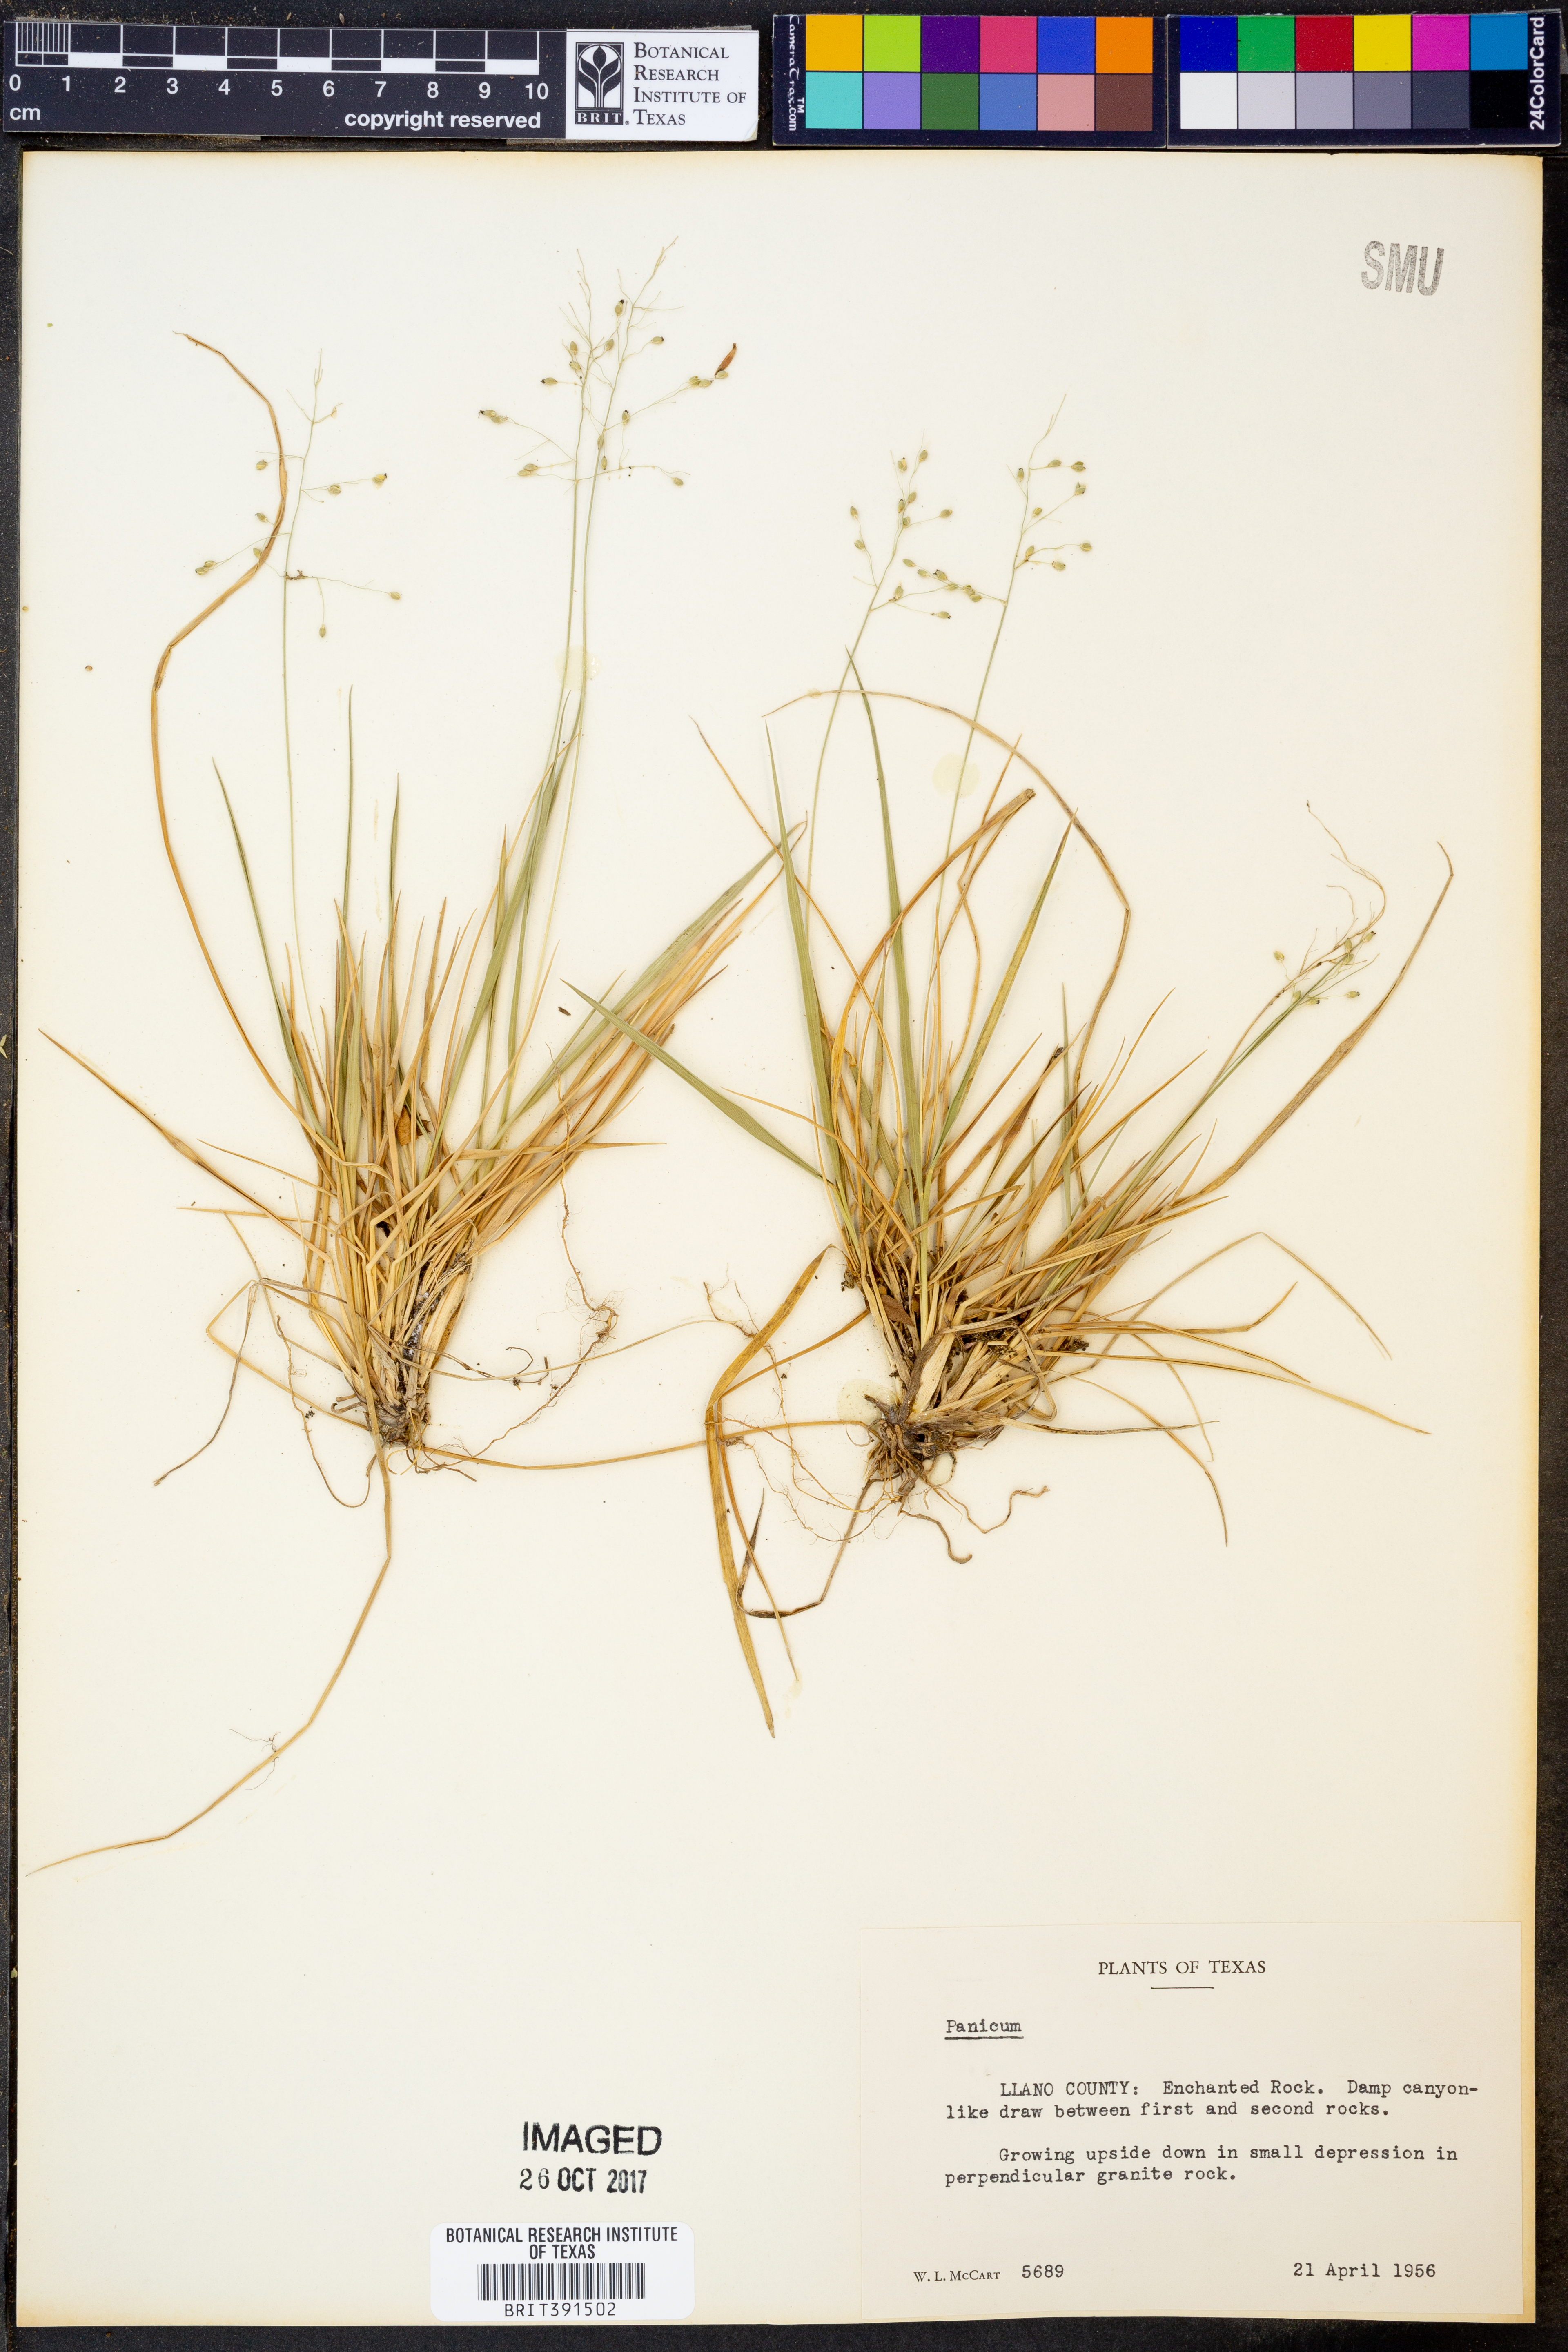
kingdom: Plantae
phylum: Tracheophyta
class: Liliopsida
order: Poales
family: Poaceae
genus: Panicum
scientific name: Panicum
